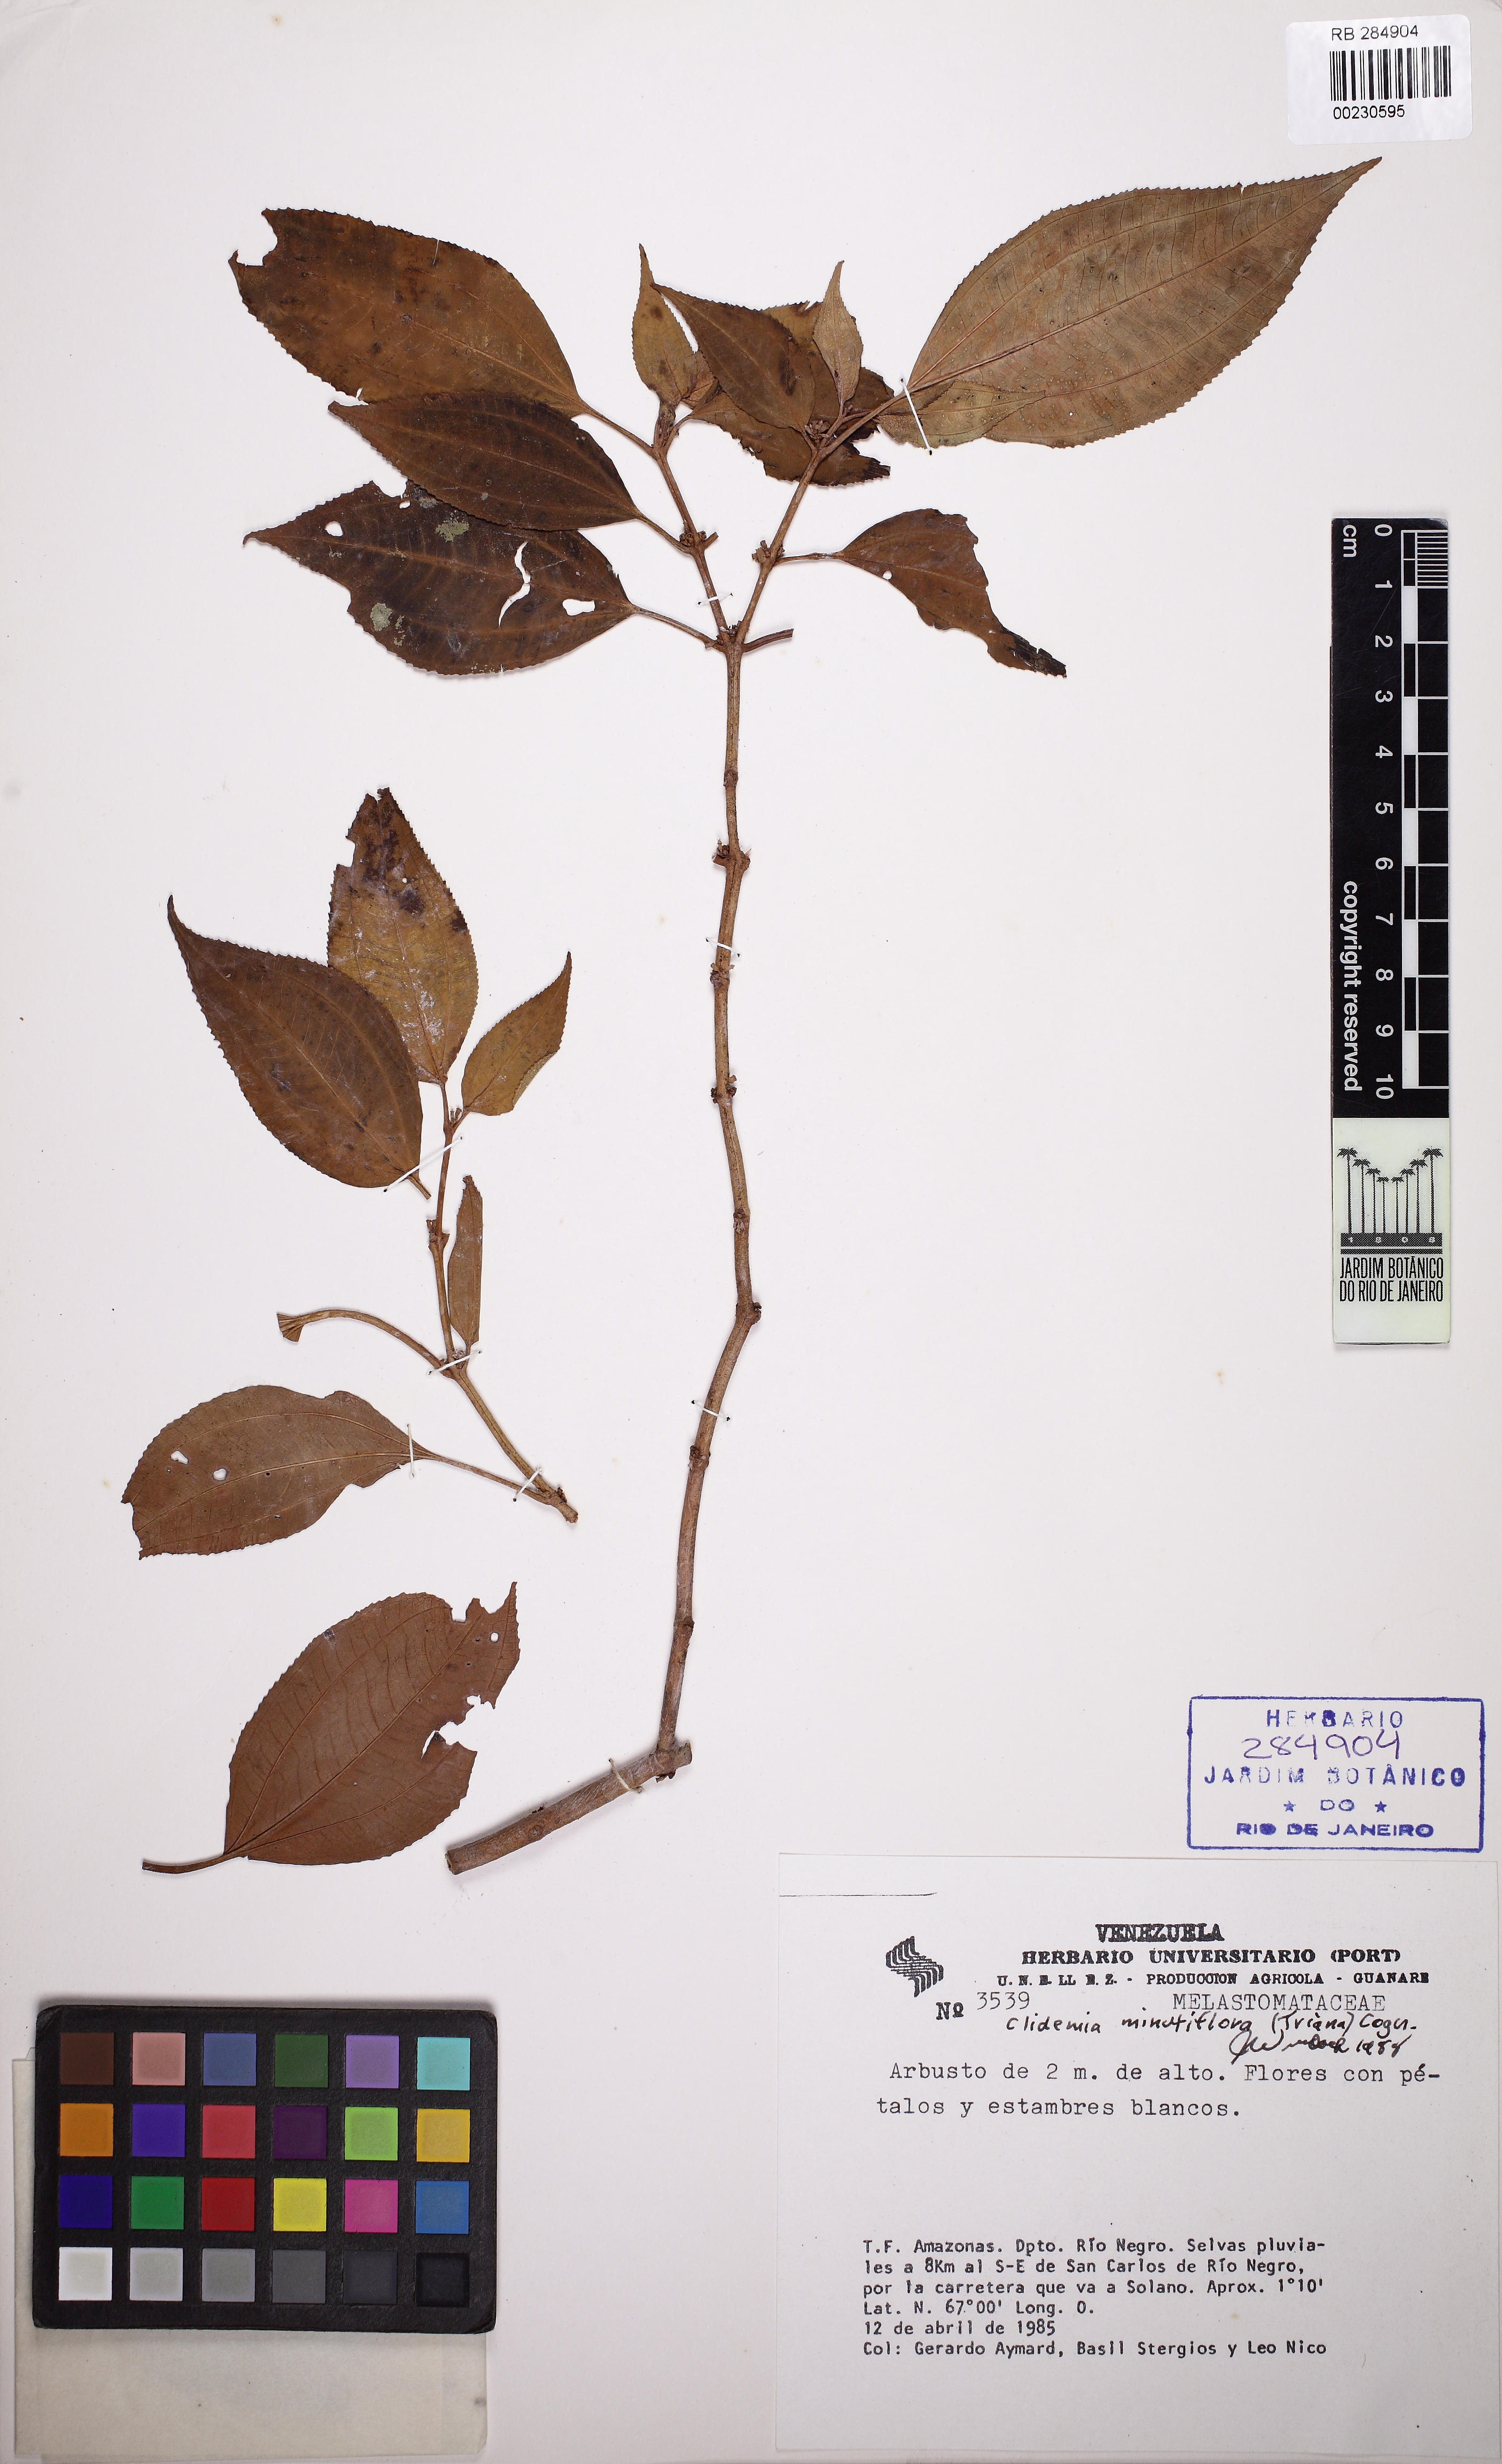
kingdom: Plantae
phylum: Tracheophyta
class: Magnoliopsida
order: Myrtales
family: Melastomataceae
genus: Miconia
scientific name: Miconia minutiflora
